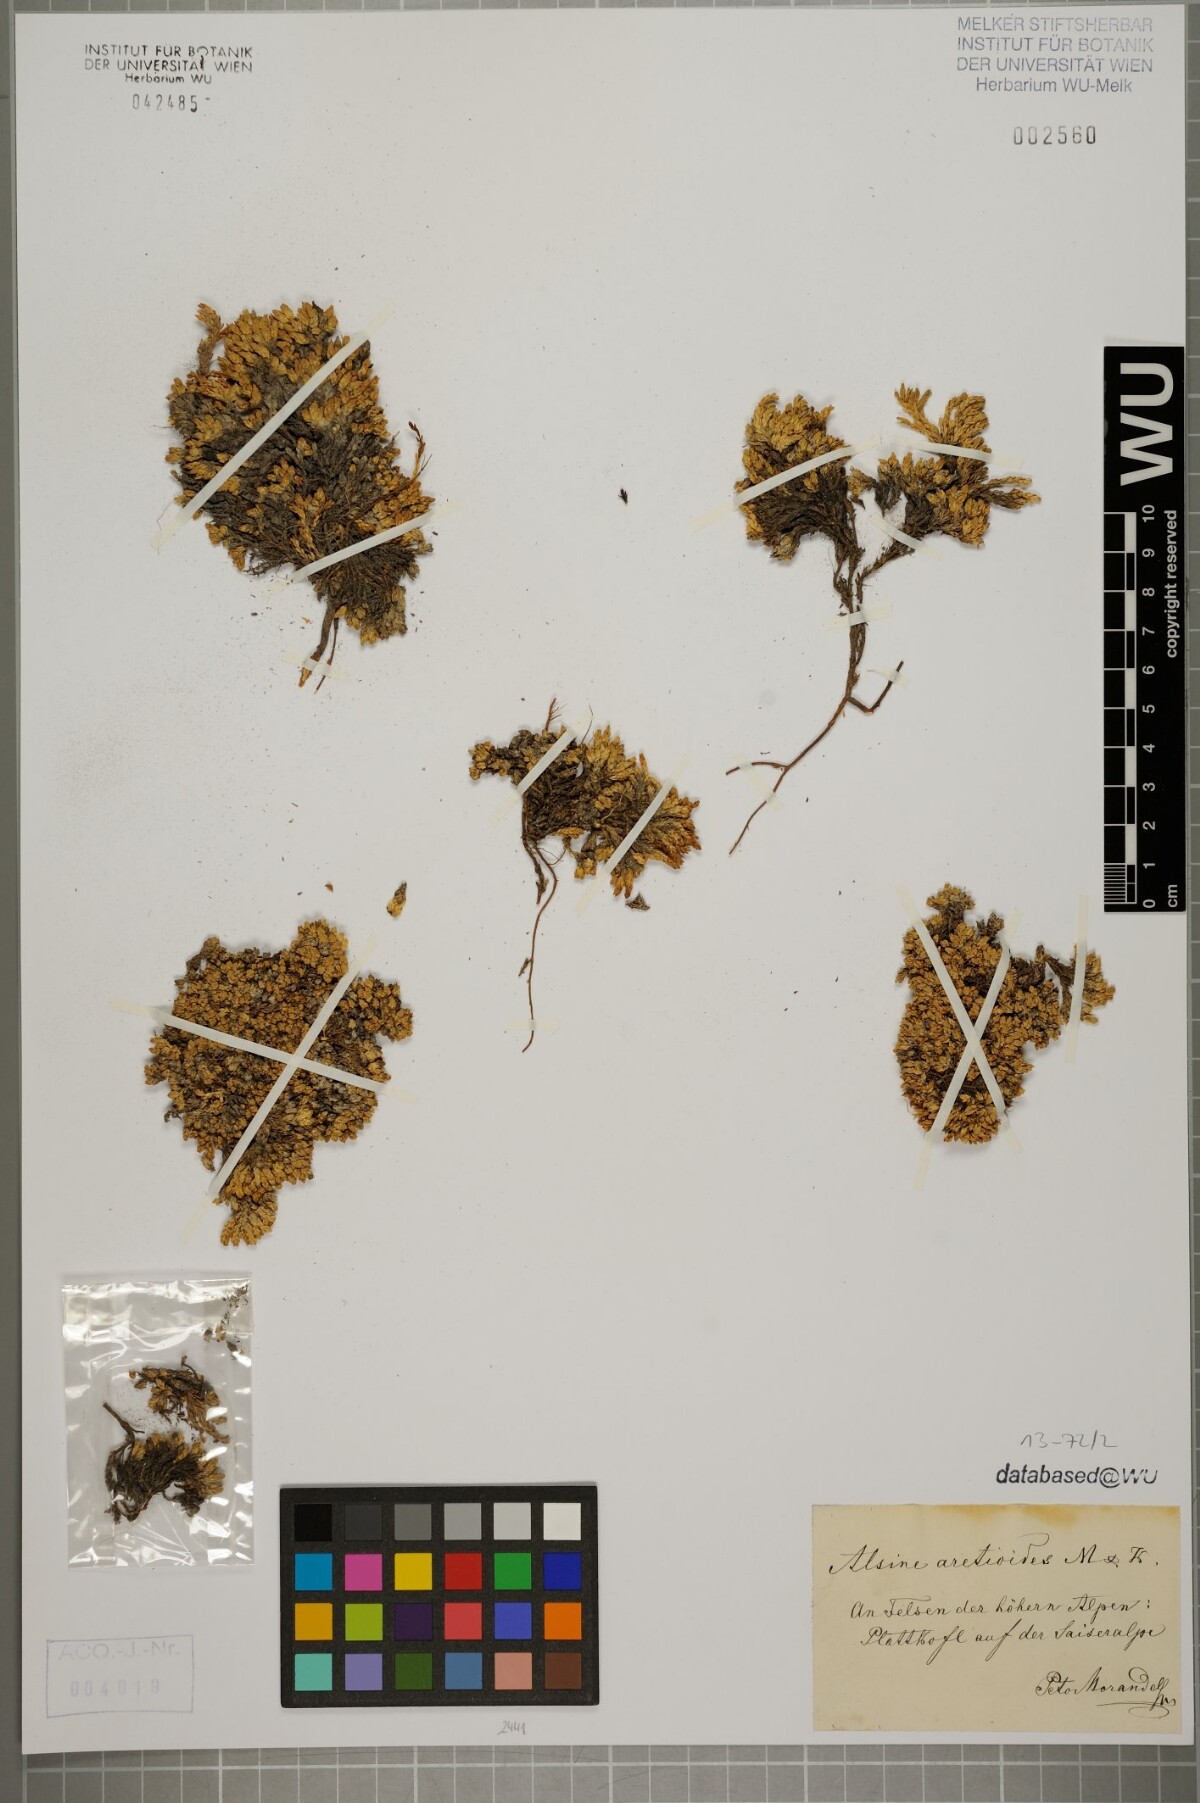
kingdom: Plantae
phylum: Tracheophyta
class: Magnoliopsida
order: Caryophyllales
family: Caryophyllaceae
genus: Facchinia
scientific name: Facchinia cherlerioides
